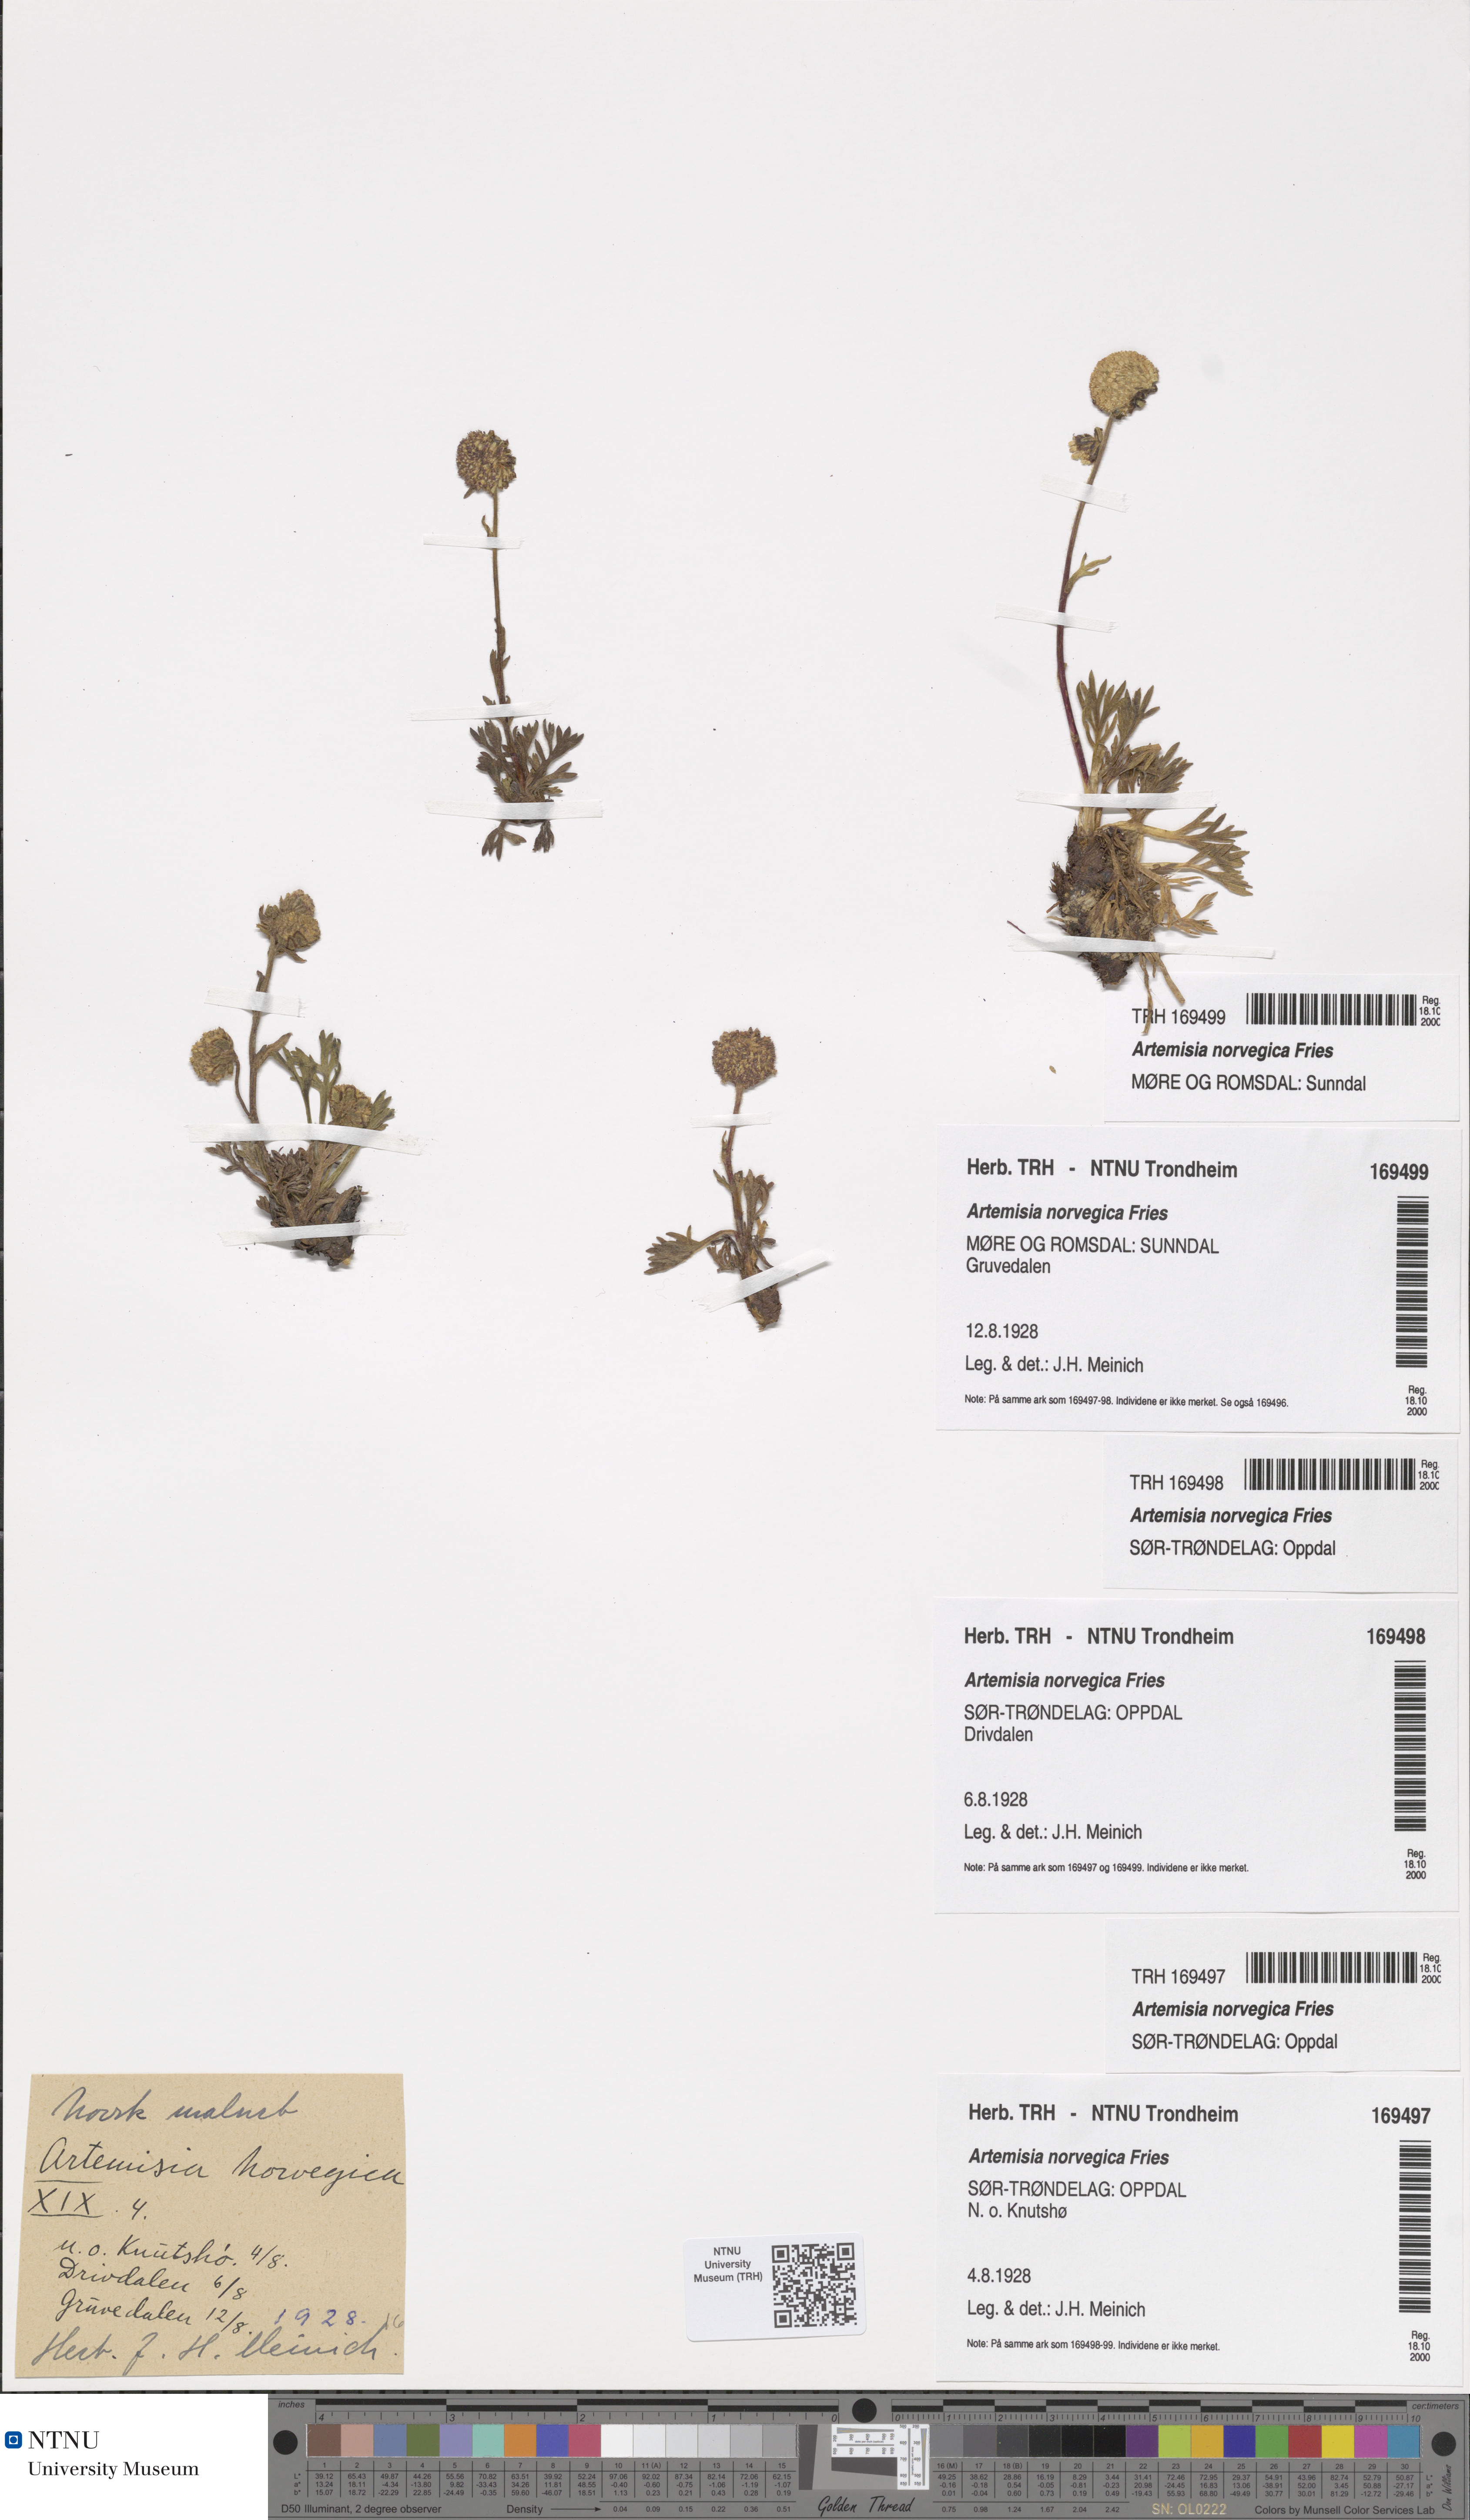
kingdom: Plantae
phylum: Tracheophyta
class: Magnoliopsida
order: Asterales
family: Asteraceae
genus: Artemisia
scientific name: Artemisia norvegica
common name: Norwegian mugwort
